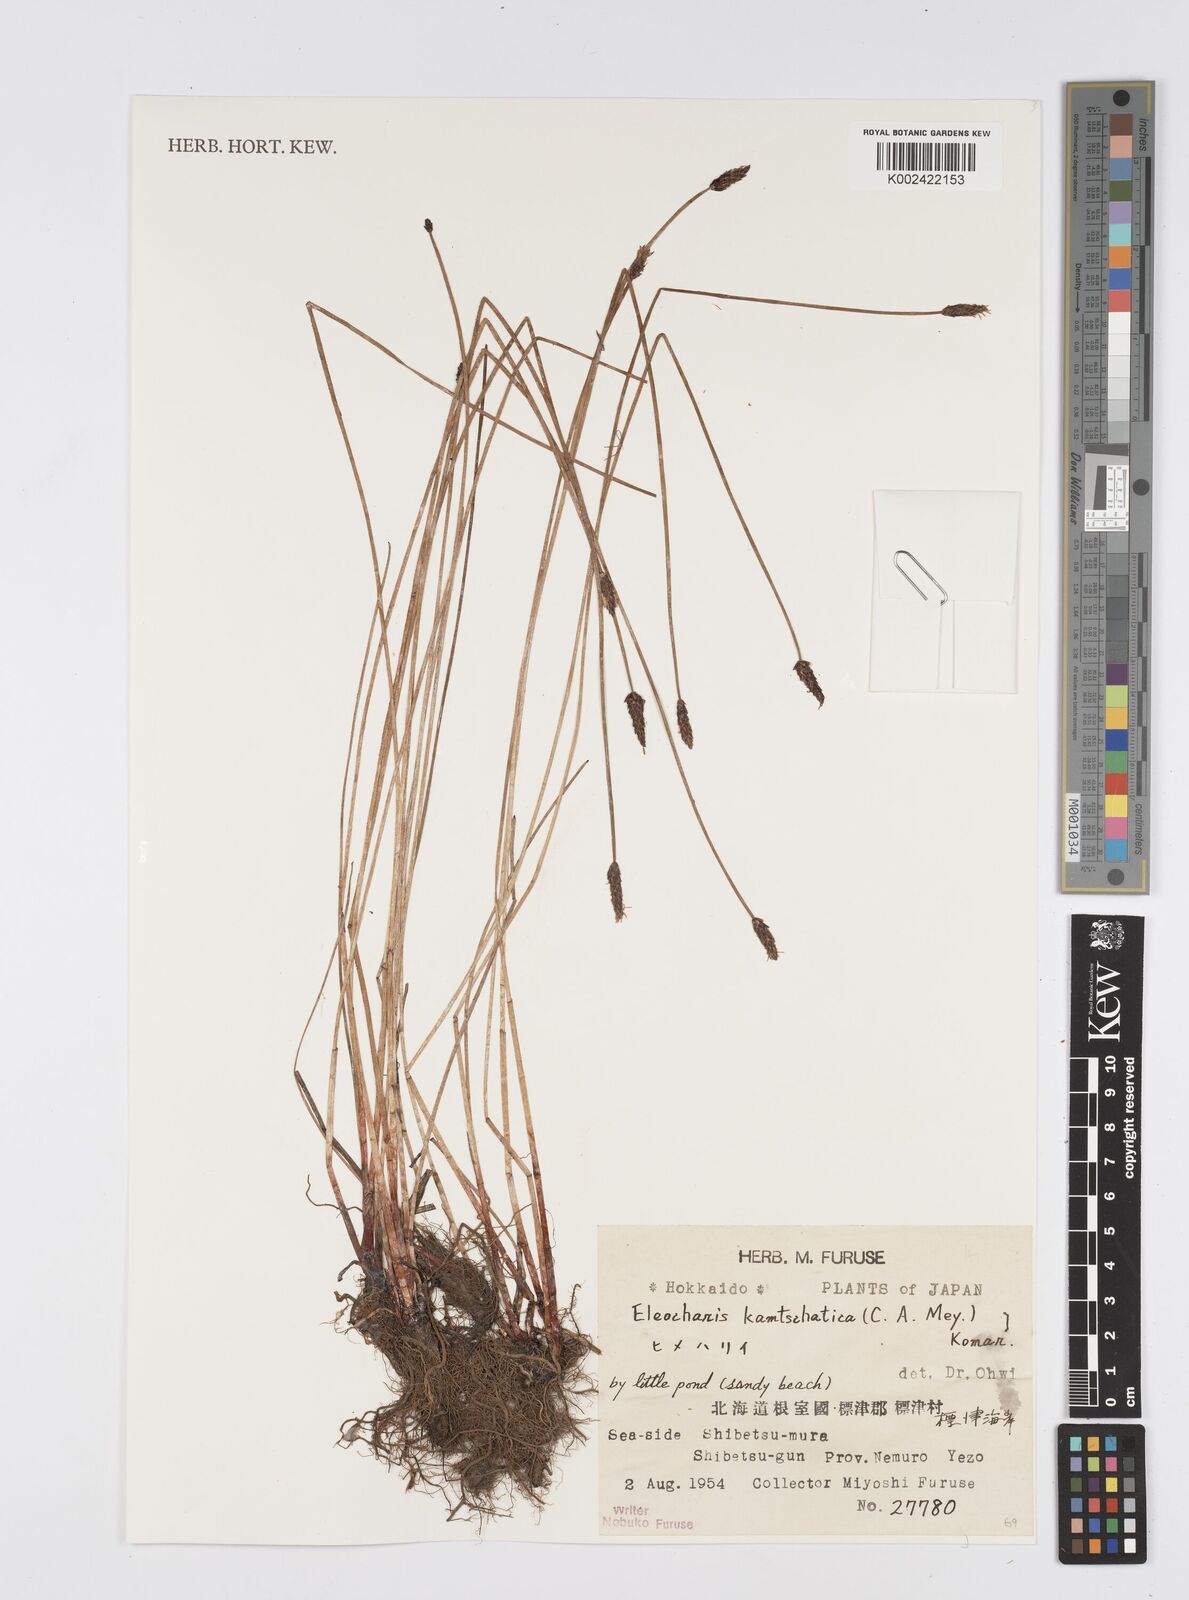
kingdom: Plantae
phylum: Tracheophyta
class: Liliopsida
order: Poales
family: Cyperaceae
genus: Eleocharis
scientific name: Eleocharis kamtschatica
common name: Kamchatka spikerush
